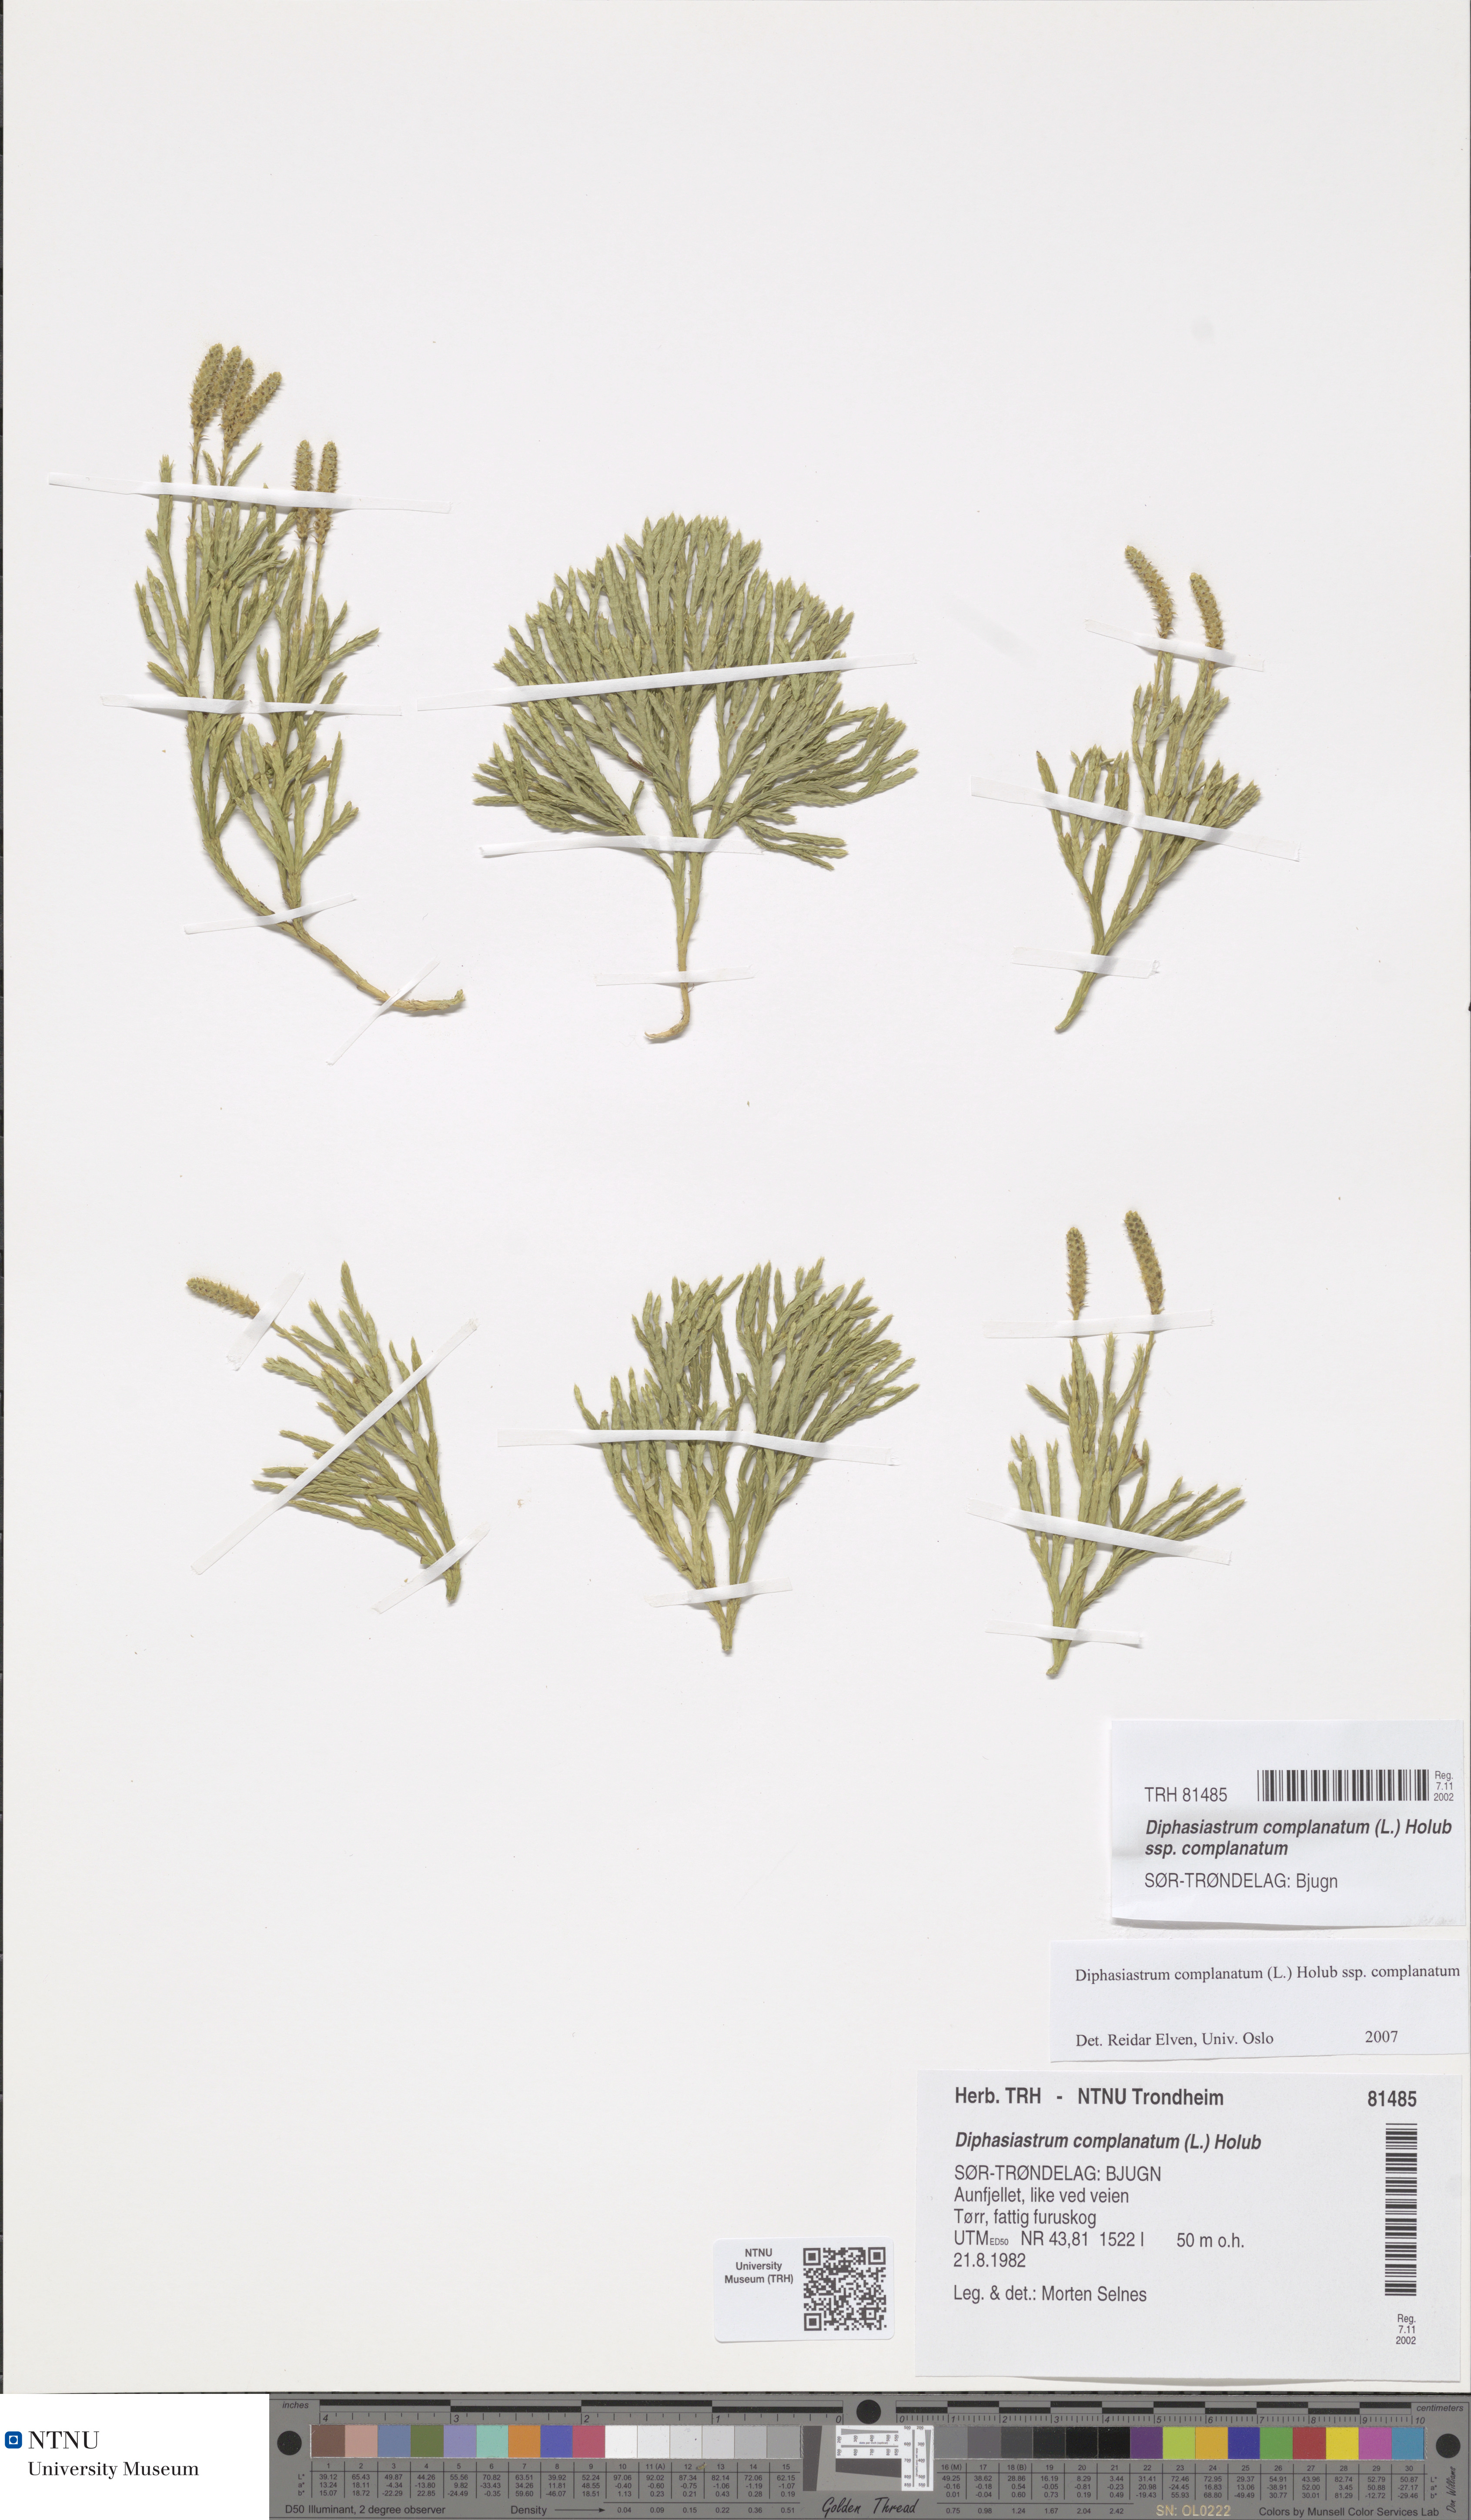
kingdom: Plantae
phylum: Tracheophyta
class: Lycopodiopsida
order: Lycopodiales
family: Lycopodiaceae
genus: Diphasiastrum
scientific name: Diphasiastrum complanatum
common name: Northern running-pine
